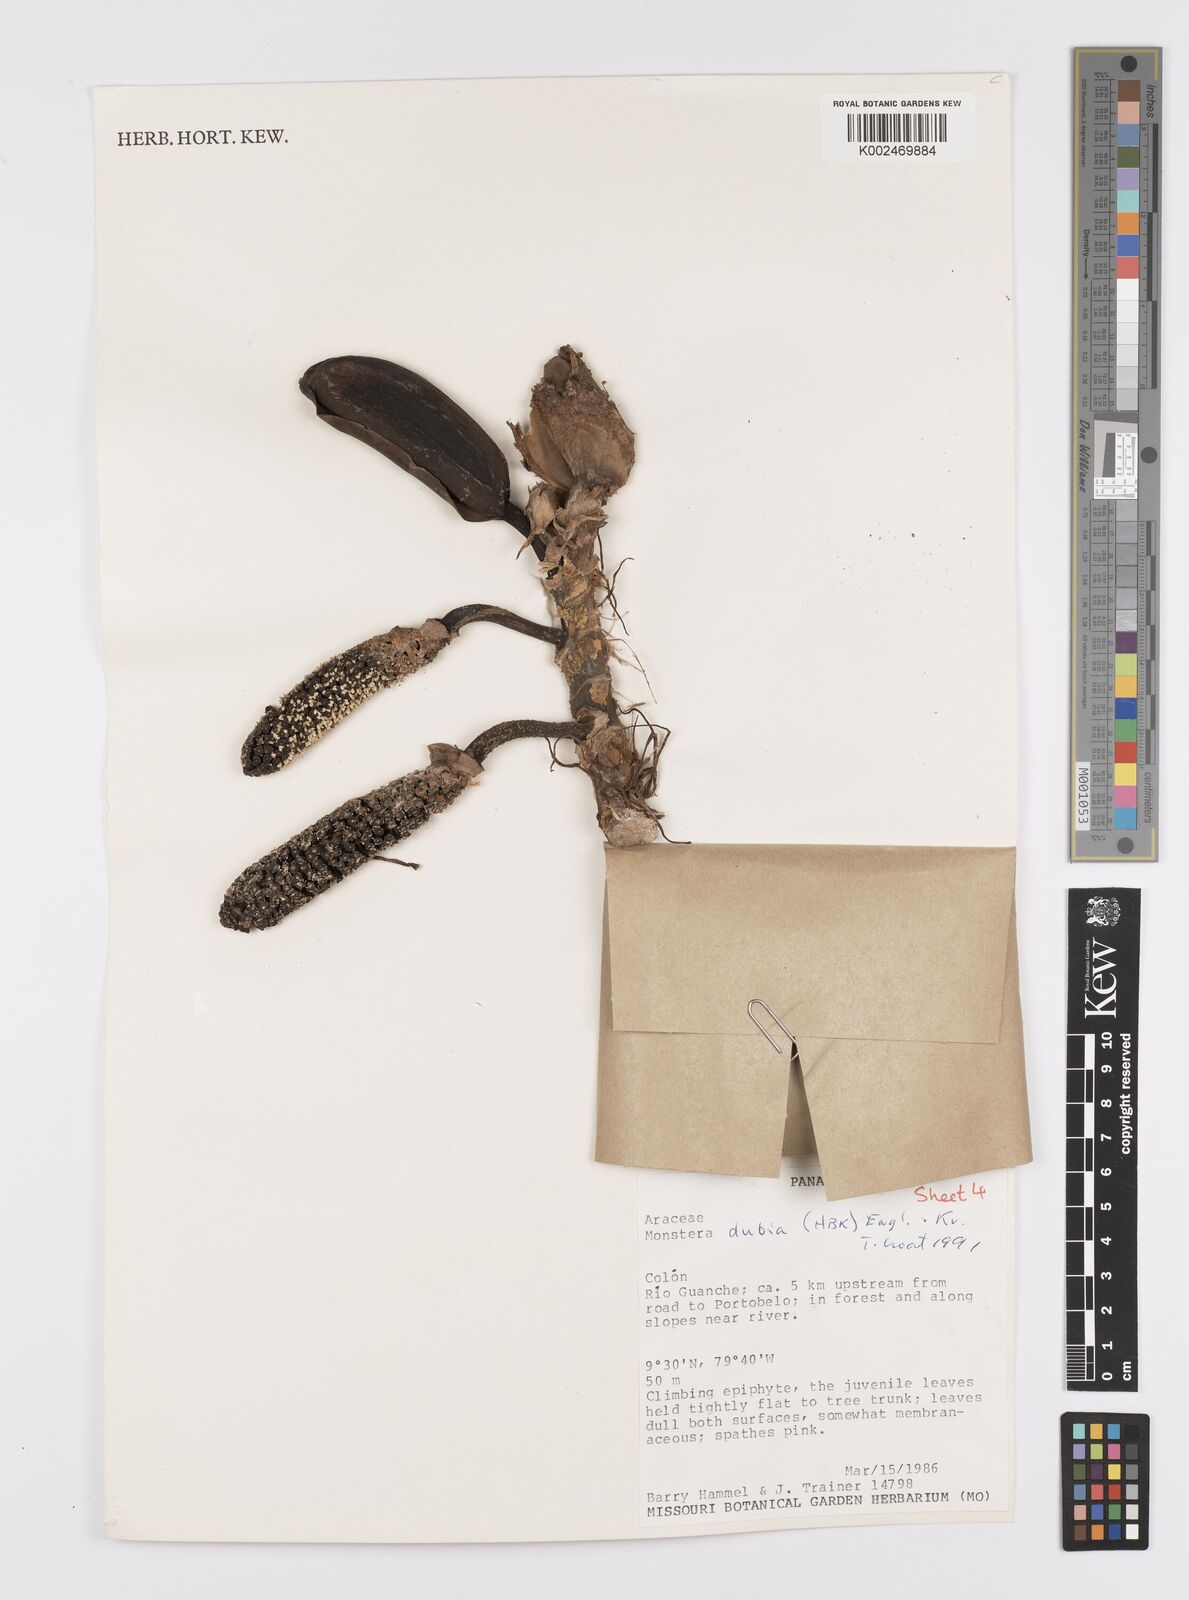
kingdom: Plantae
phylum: Tracheophyta
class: Liliopsida
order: Alismatales
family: Araceae
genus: Monstera
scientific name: Monstera dubia
